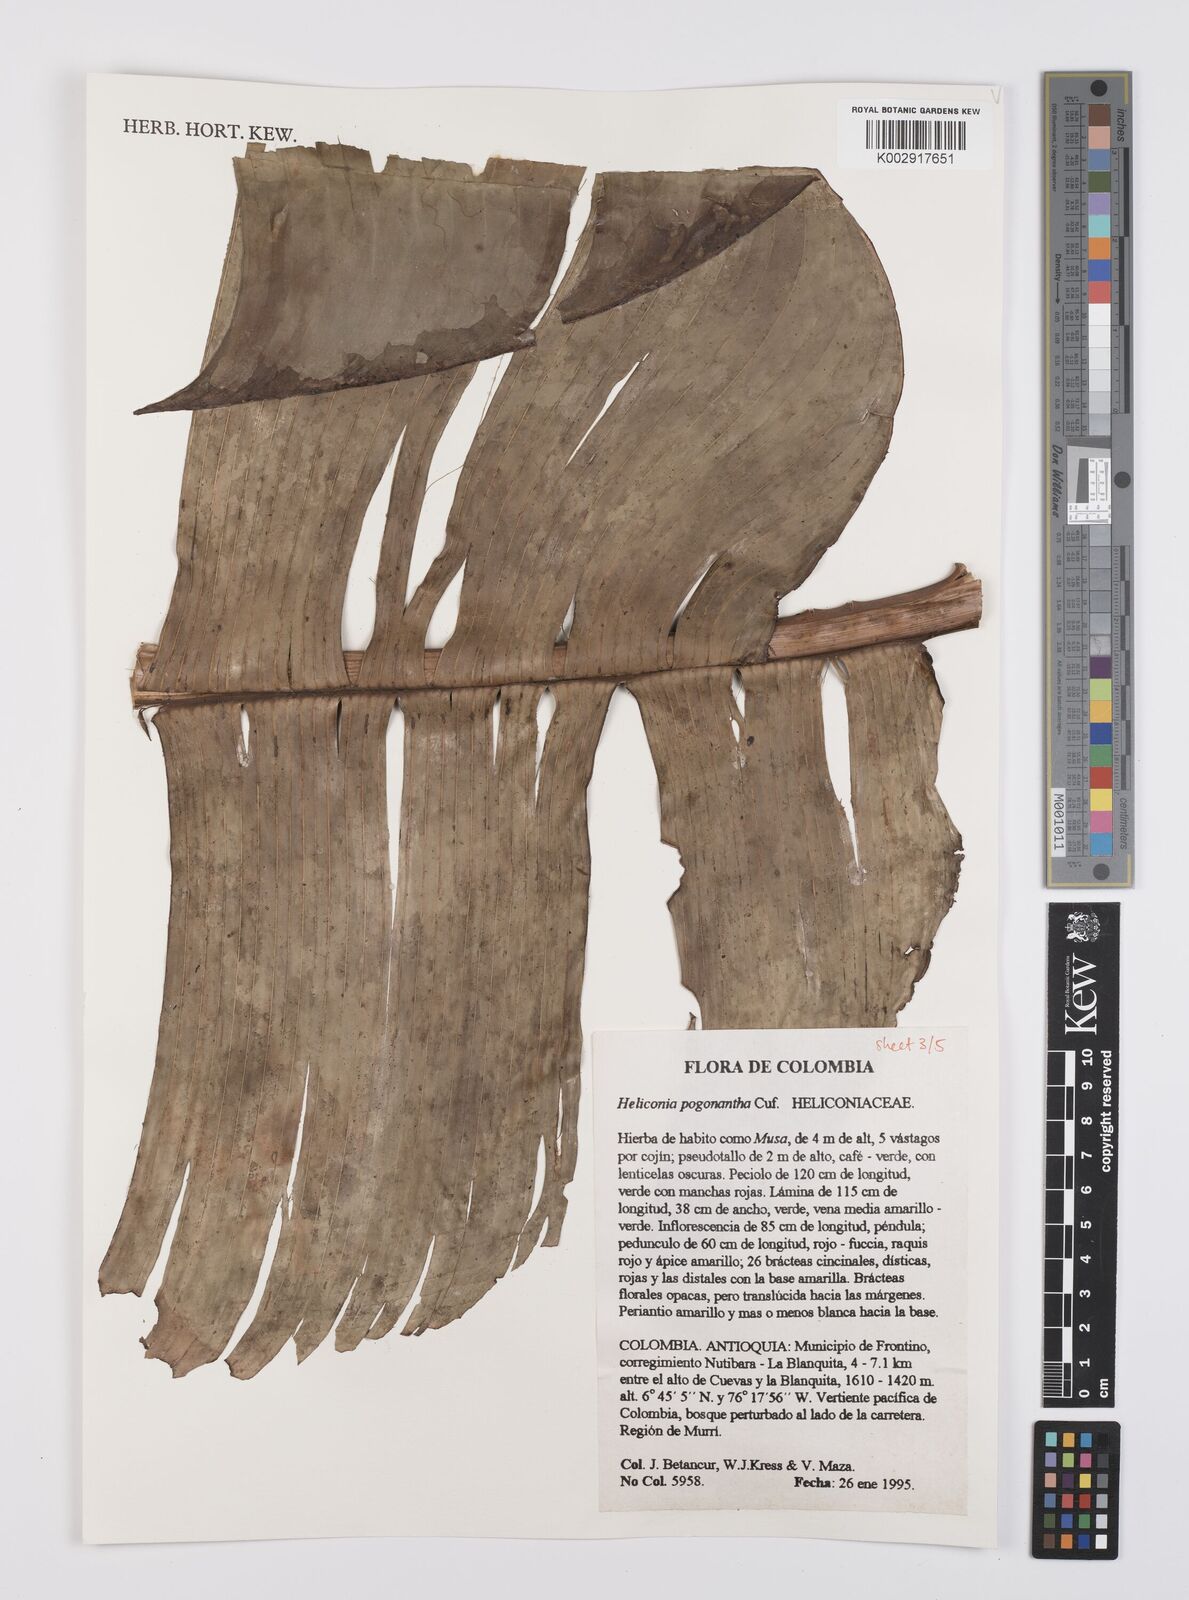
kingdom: Plantae
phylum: Tracheophyta
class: Liliopsida
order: Zingiberales
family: Heliconiaceae
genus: Heliconia
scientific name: Heliconia pogonantha
